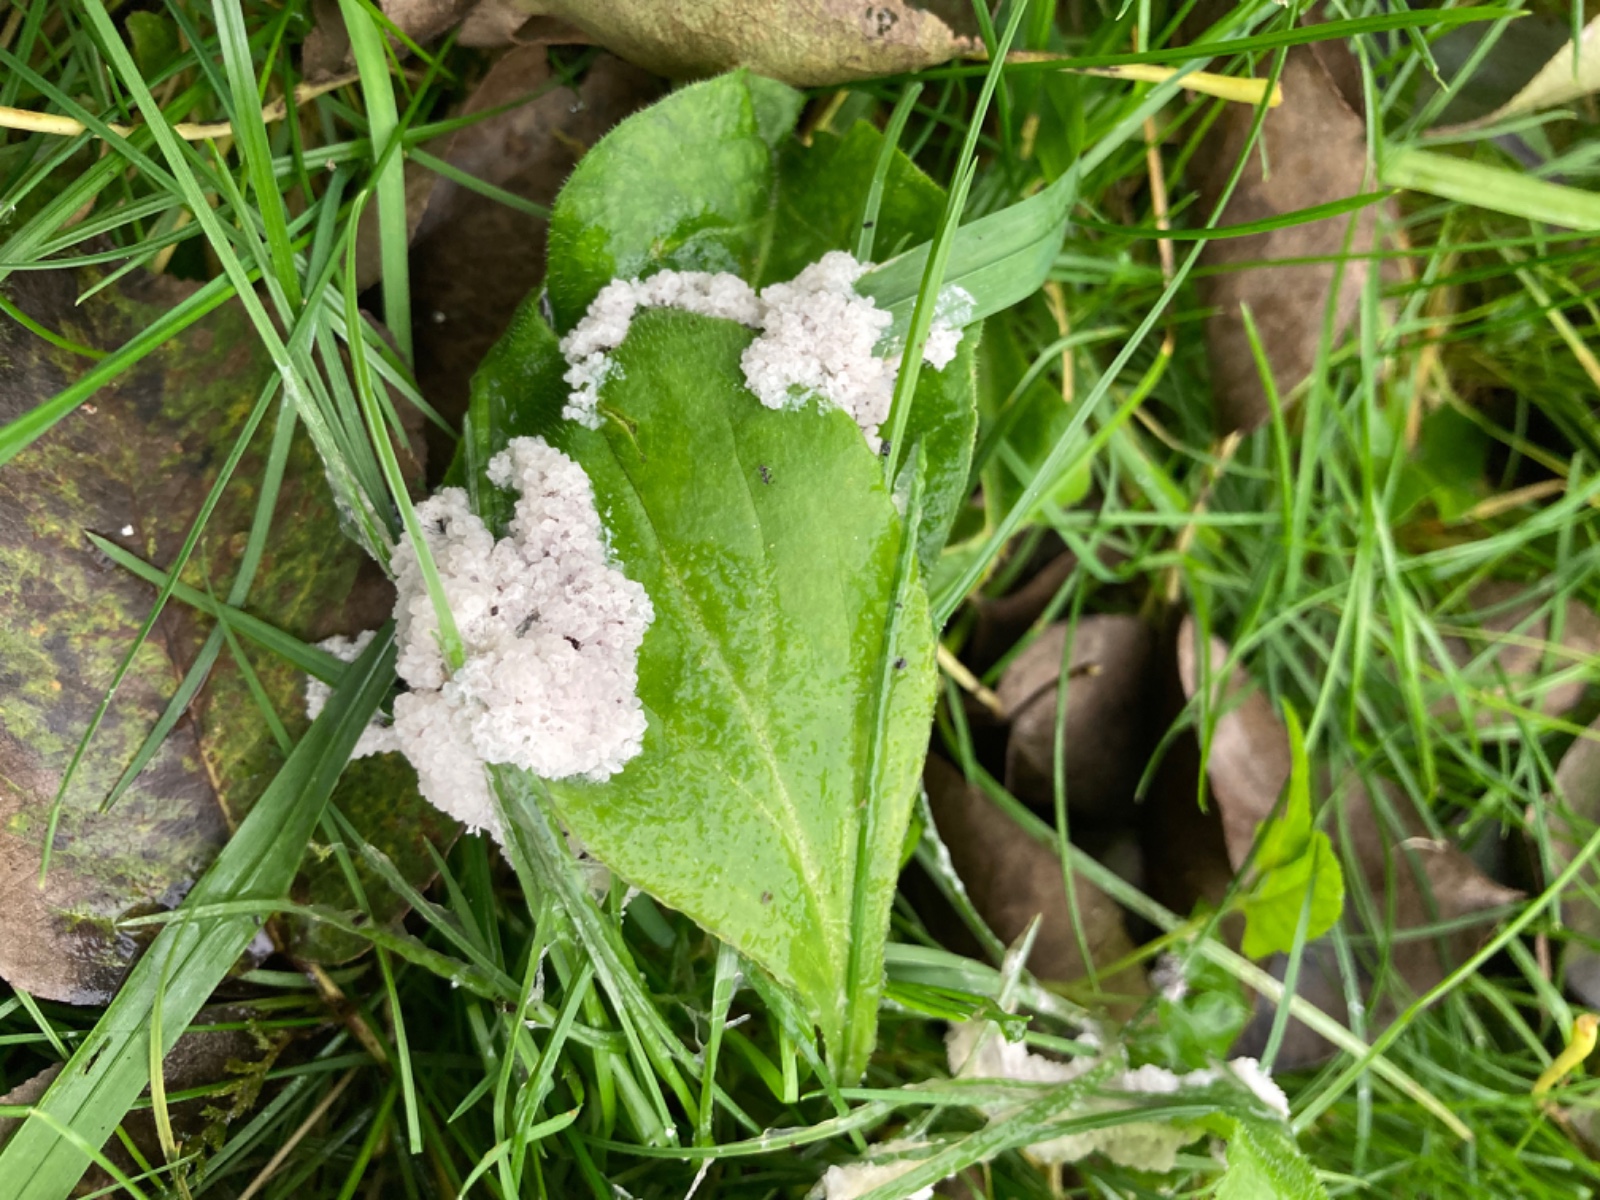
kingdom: Protozoa
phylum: Mycetozoa
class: Myxomycetes
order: Physarales
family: Physaraceae
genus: Didymium
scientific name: Didymium
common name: urteskum
